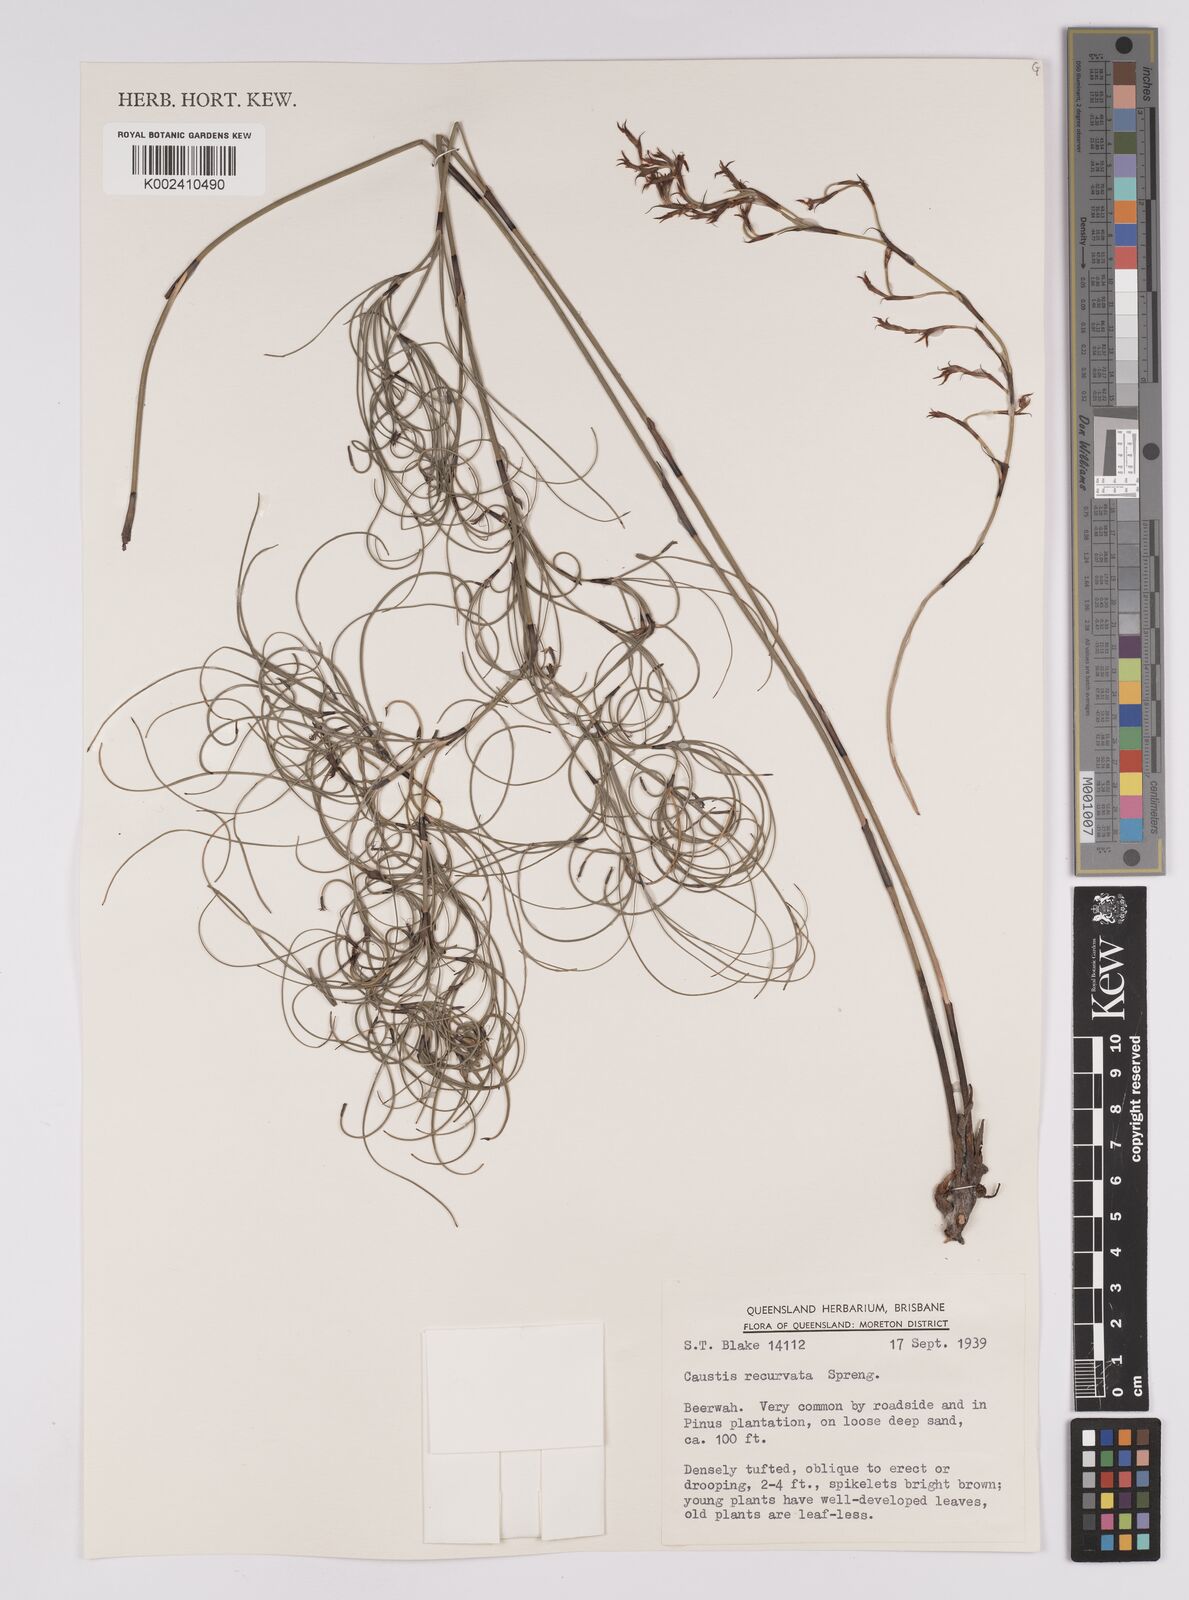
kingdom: Plantae
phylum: Tracheophyta
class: Liliopsida
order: Poales
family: Cyperaceae
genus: Caustis
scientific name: Caustis recurvata
